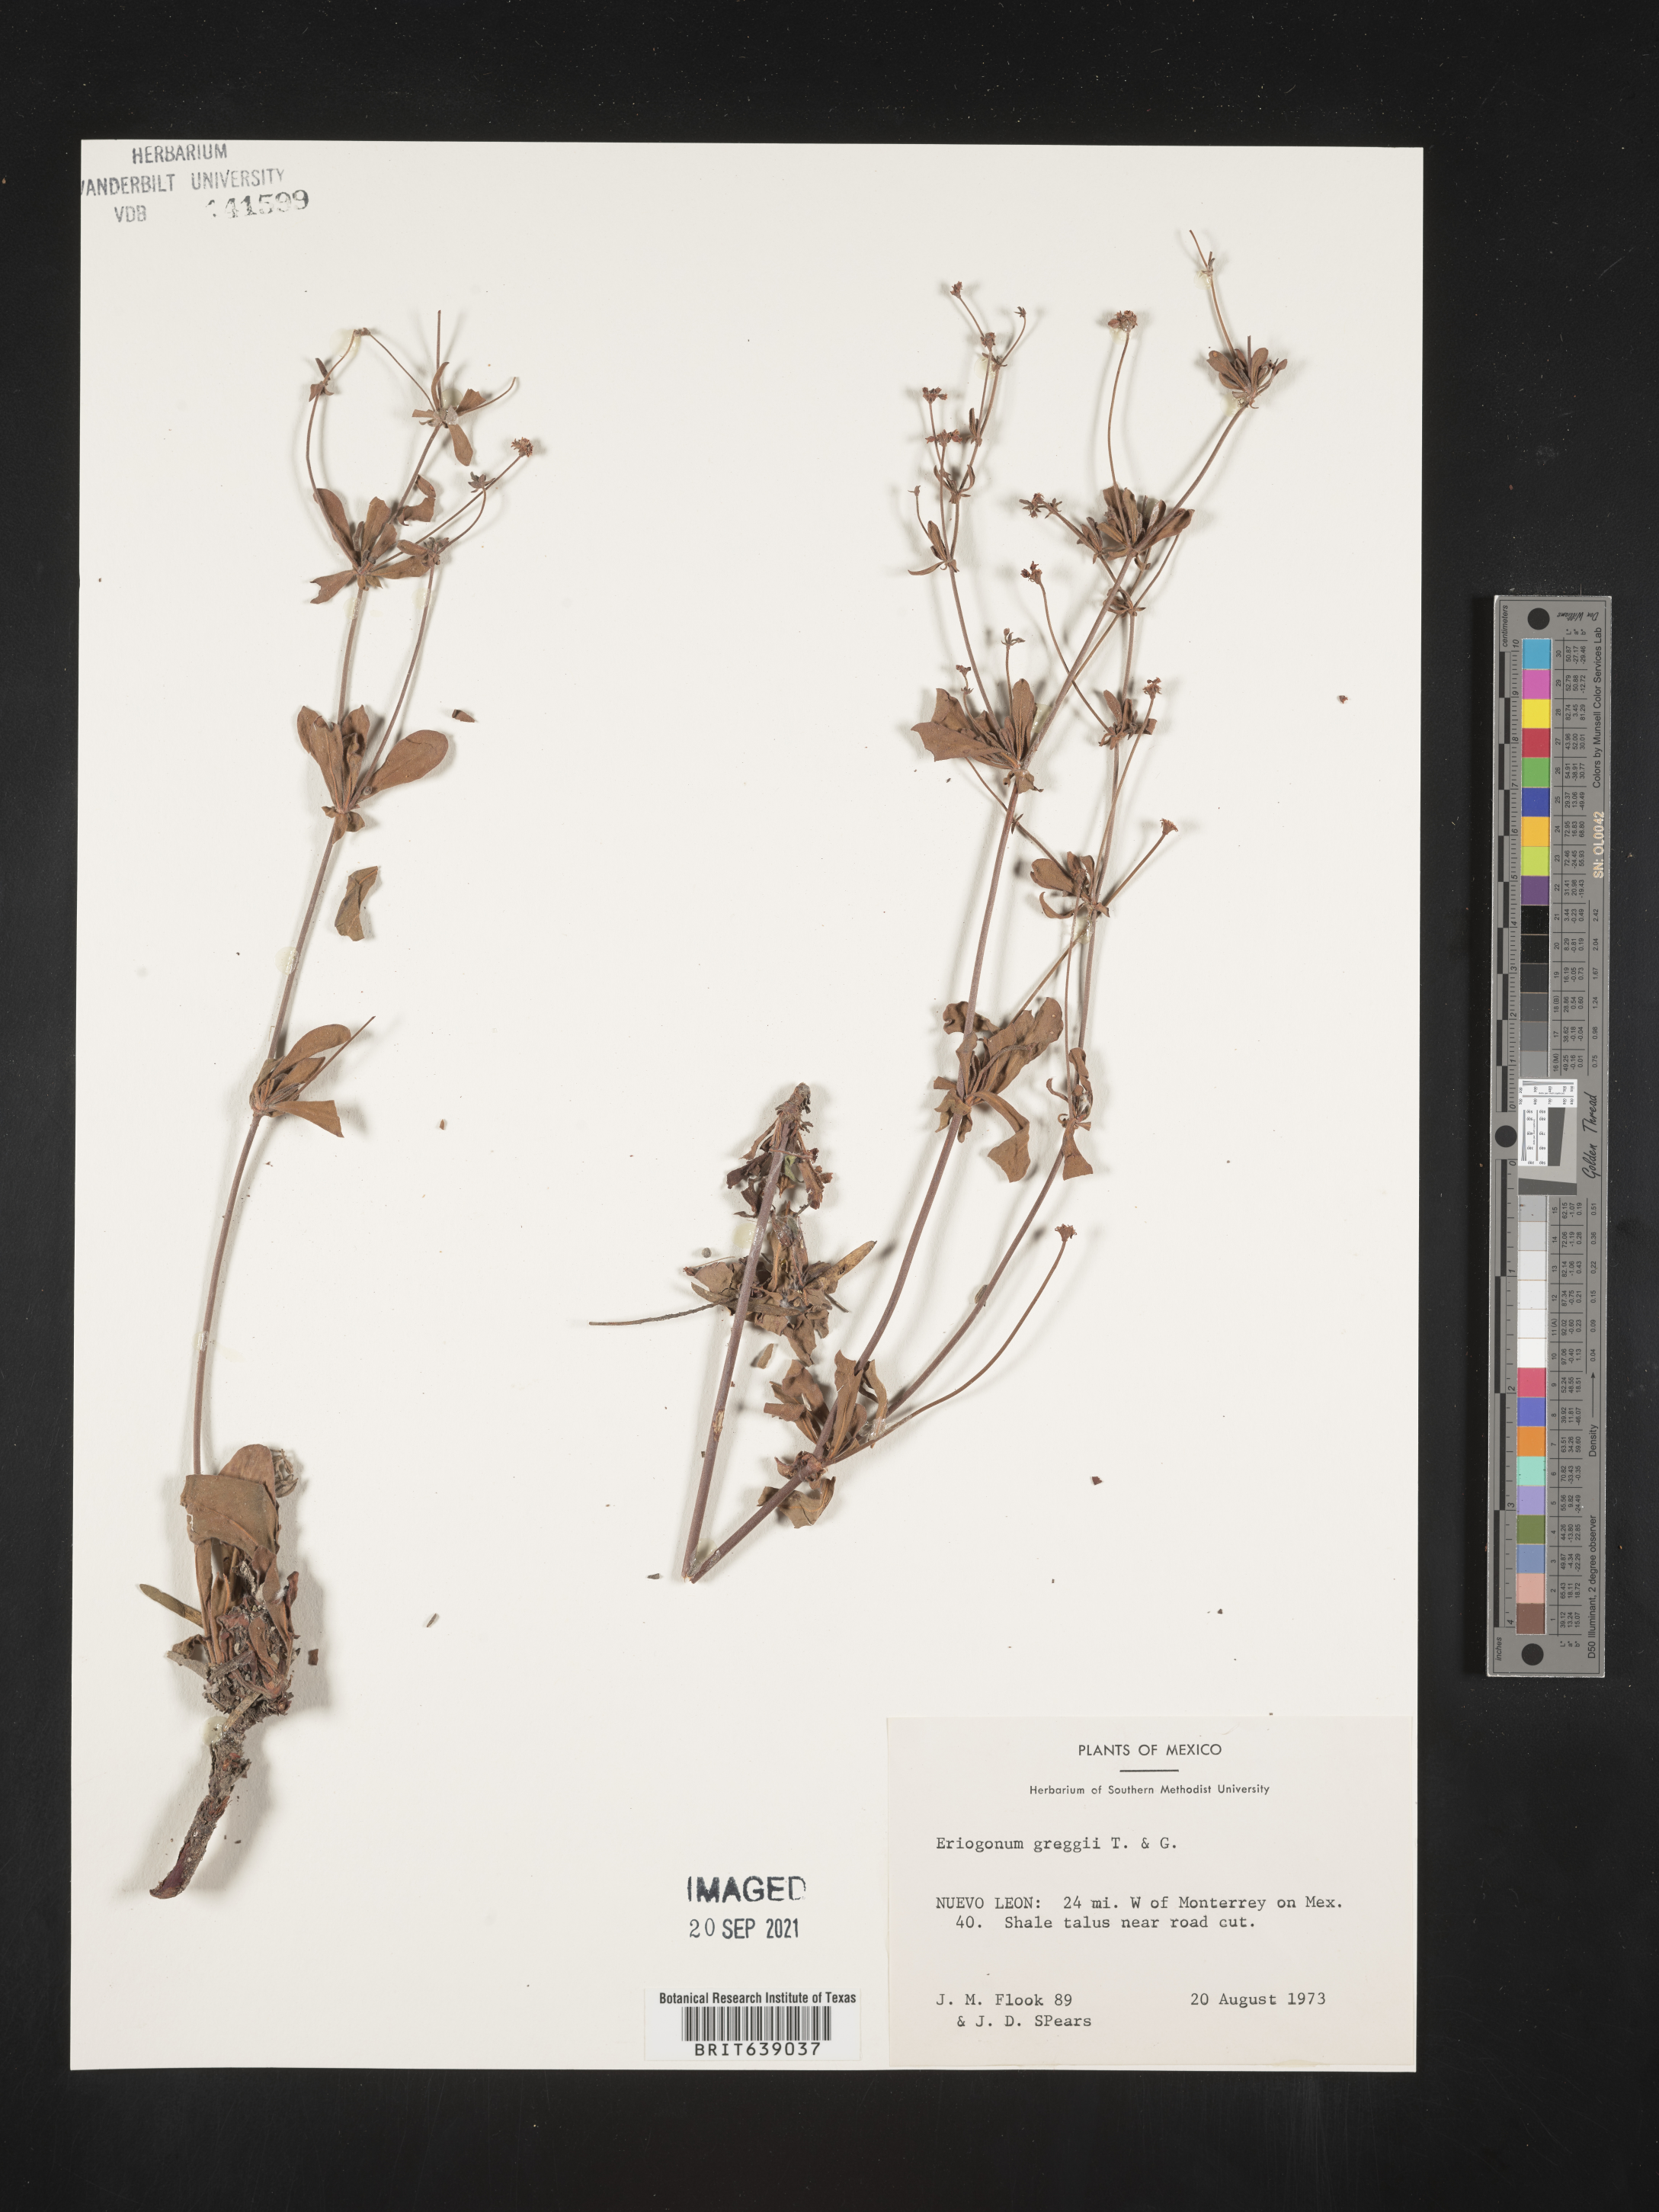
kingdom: Plantae
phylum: Tracheophyta
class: Magnoliopsida
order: Caryophyllales
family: Polygonaceae
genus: Eriogonum
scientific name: Eriogonum greggii
